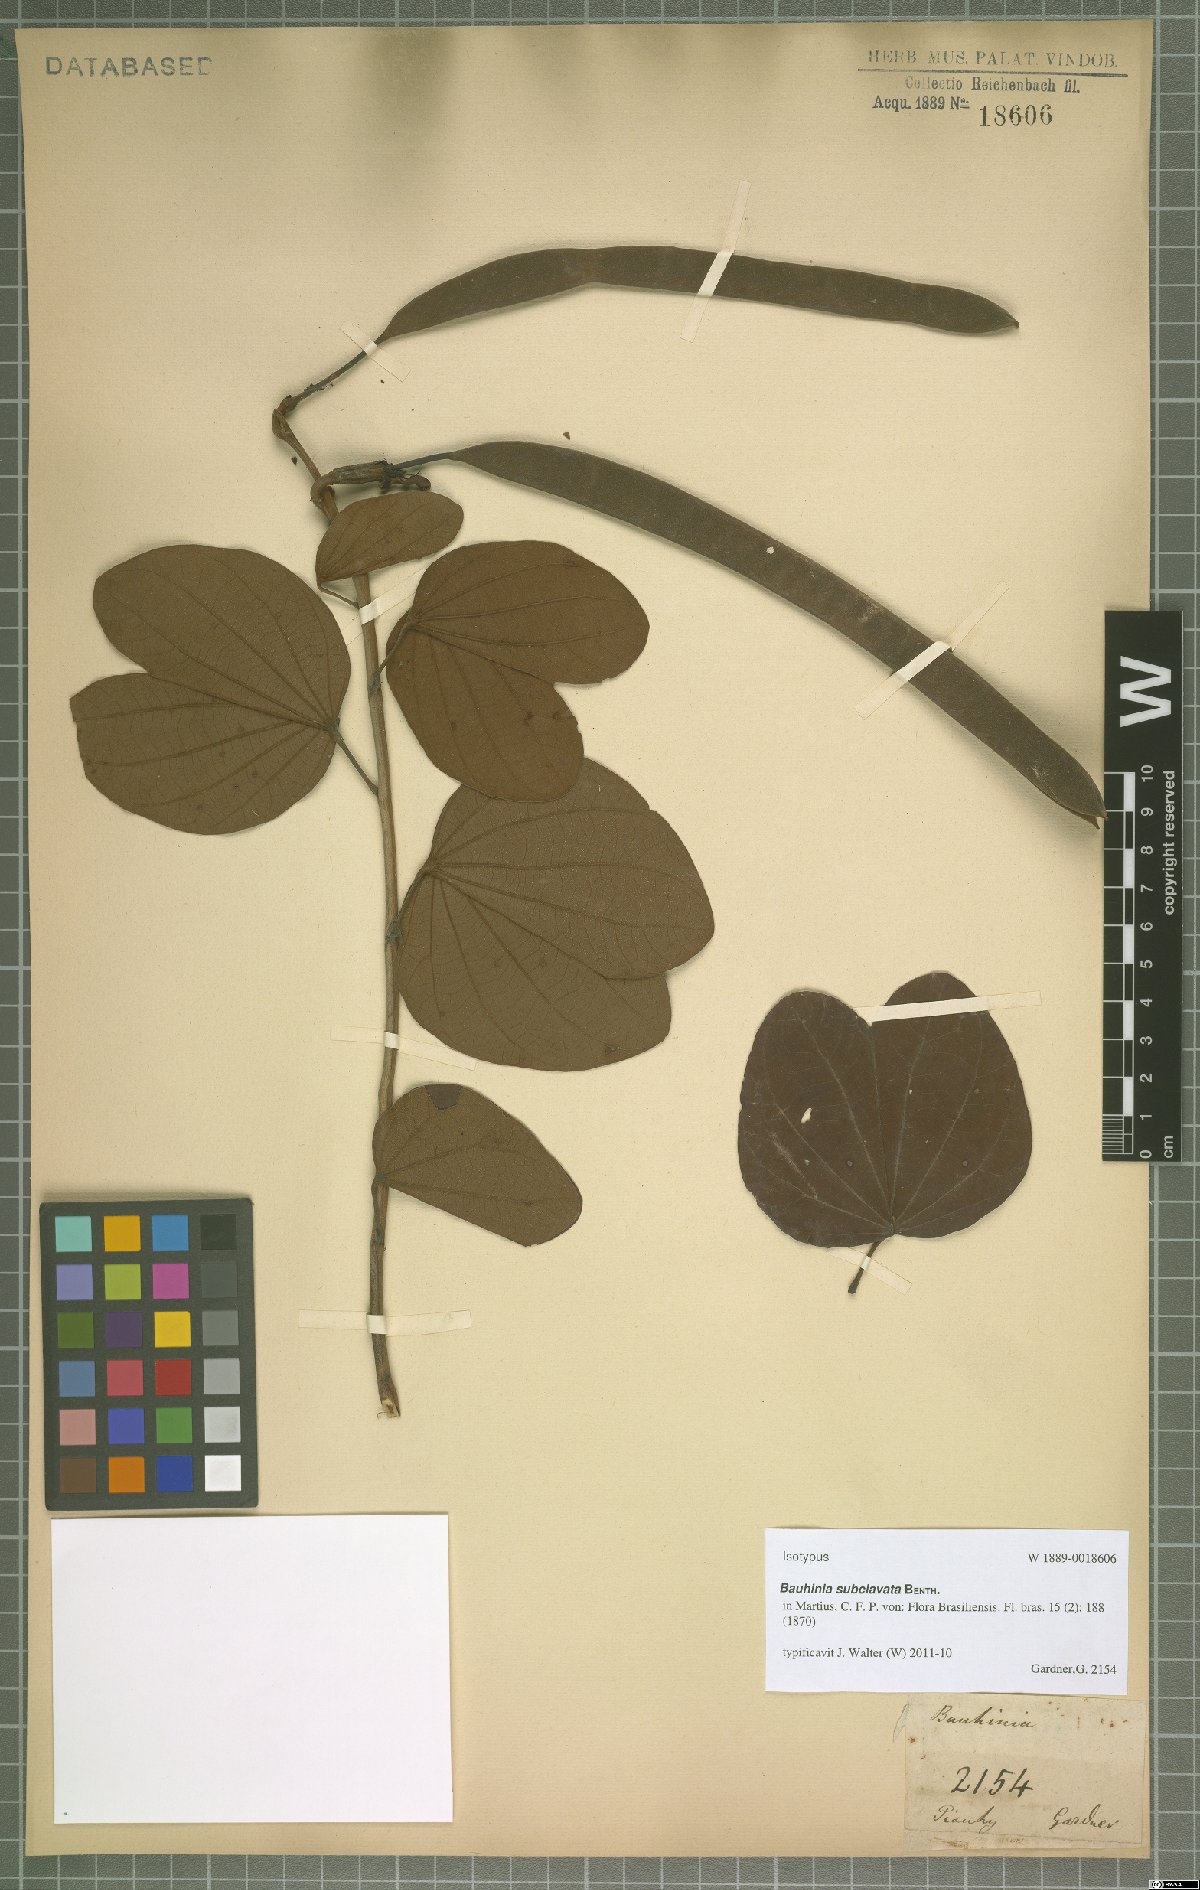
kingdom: Plantae
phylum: Tracheophyta
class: Magnoliopsida
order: Fabales
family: Fabaceae
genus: Bauhinia
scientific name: Bauhinia subclavata
